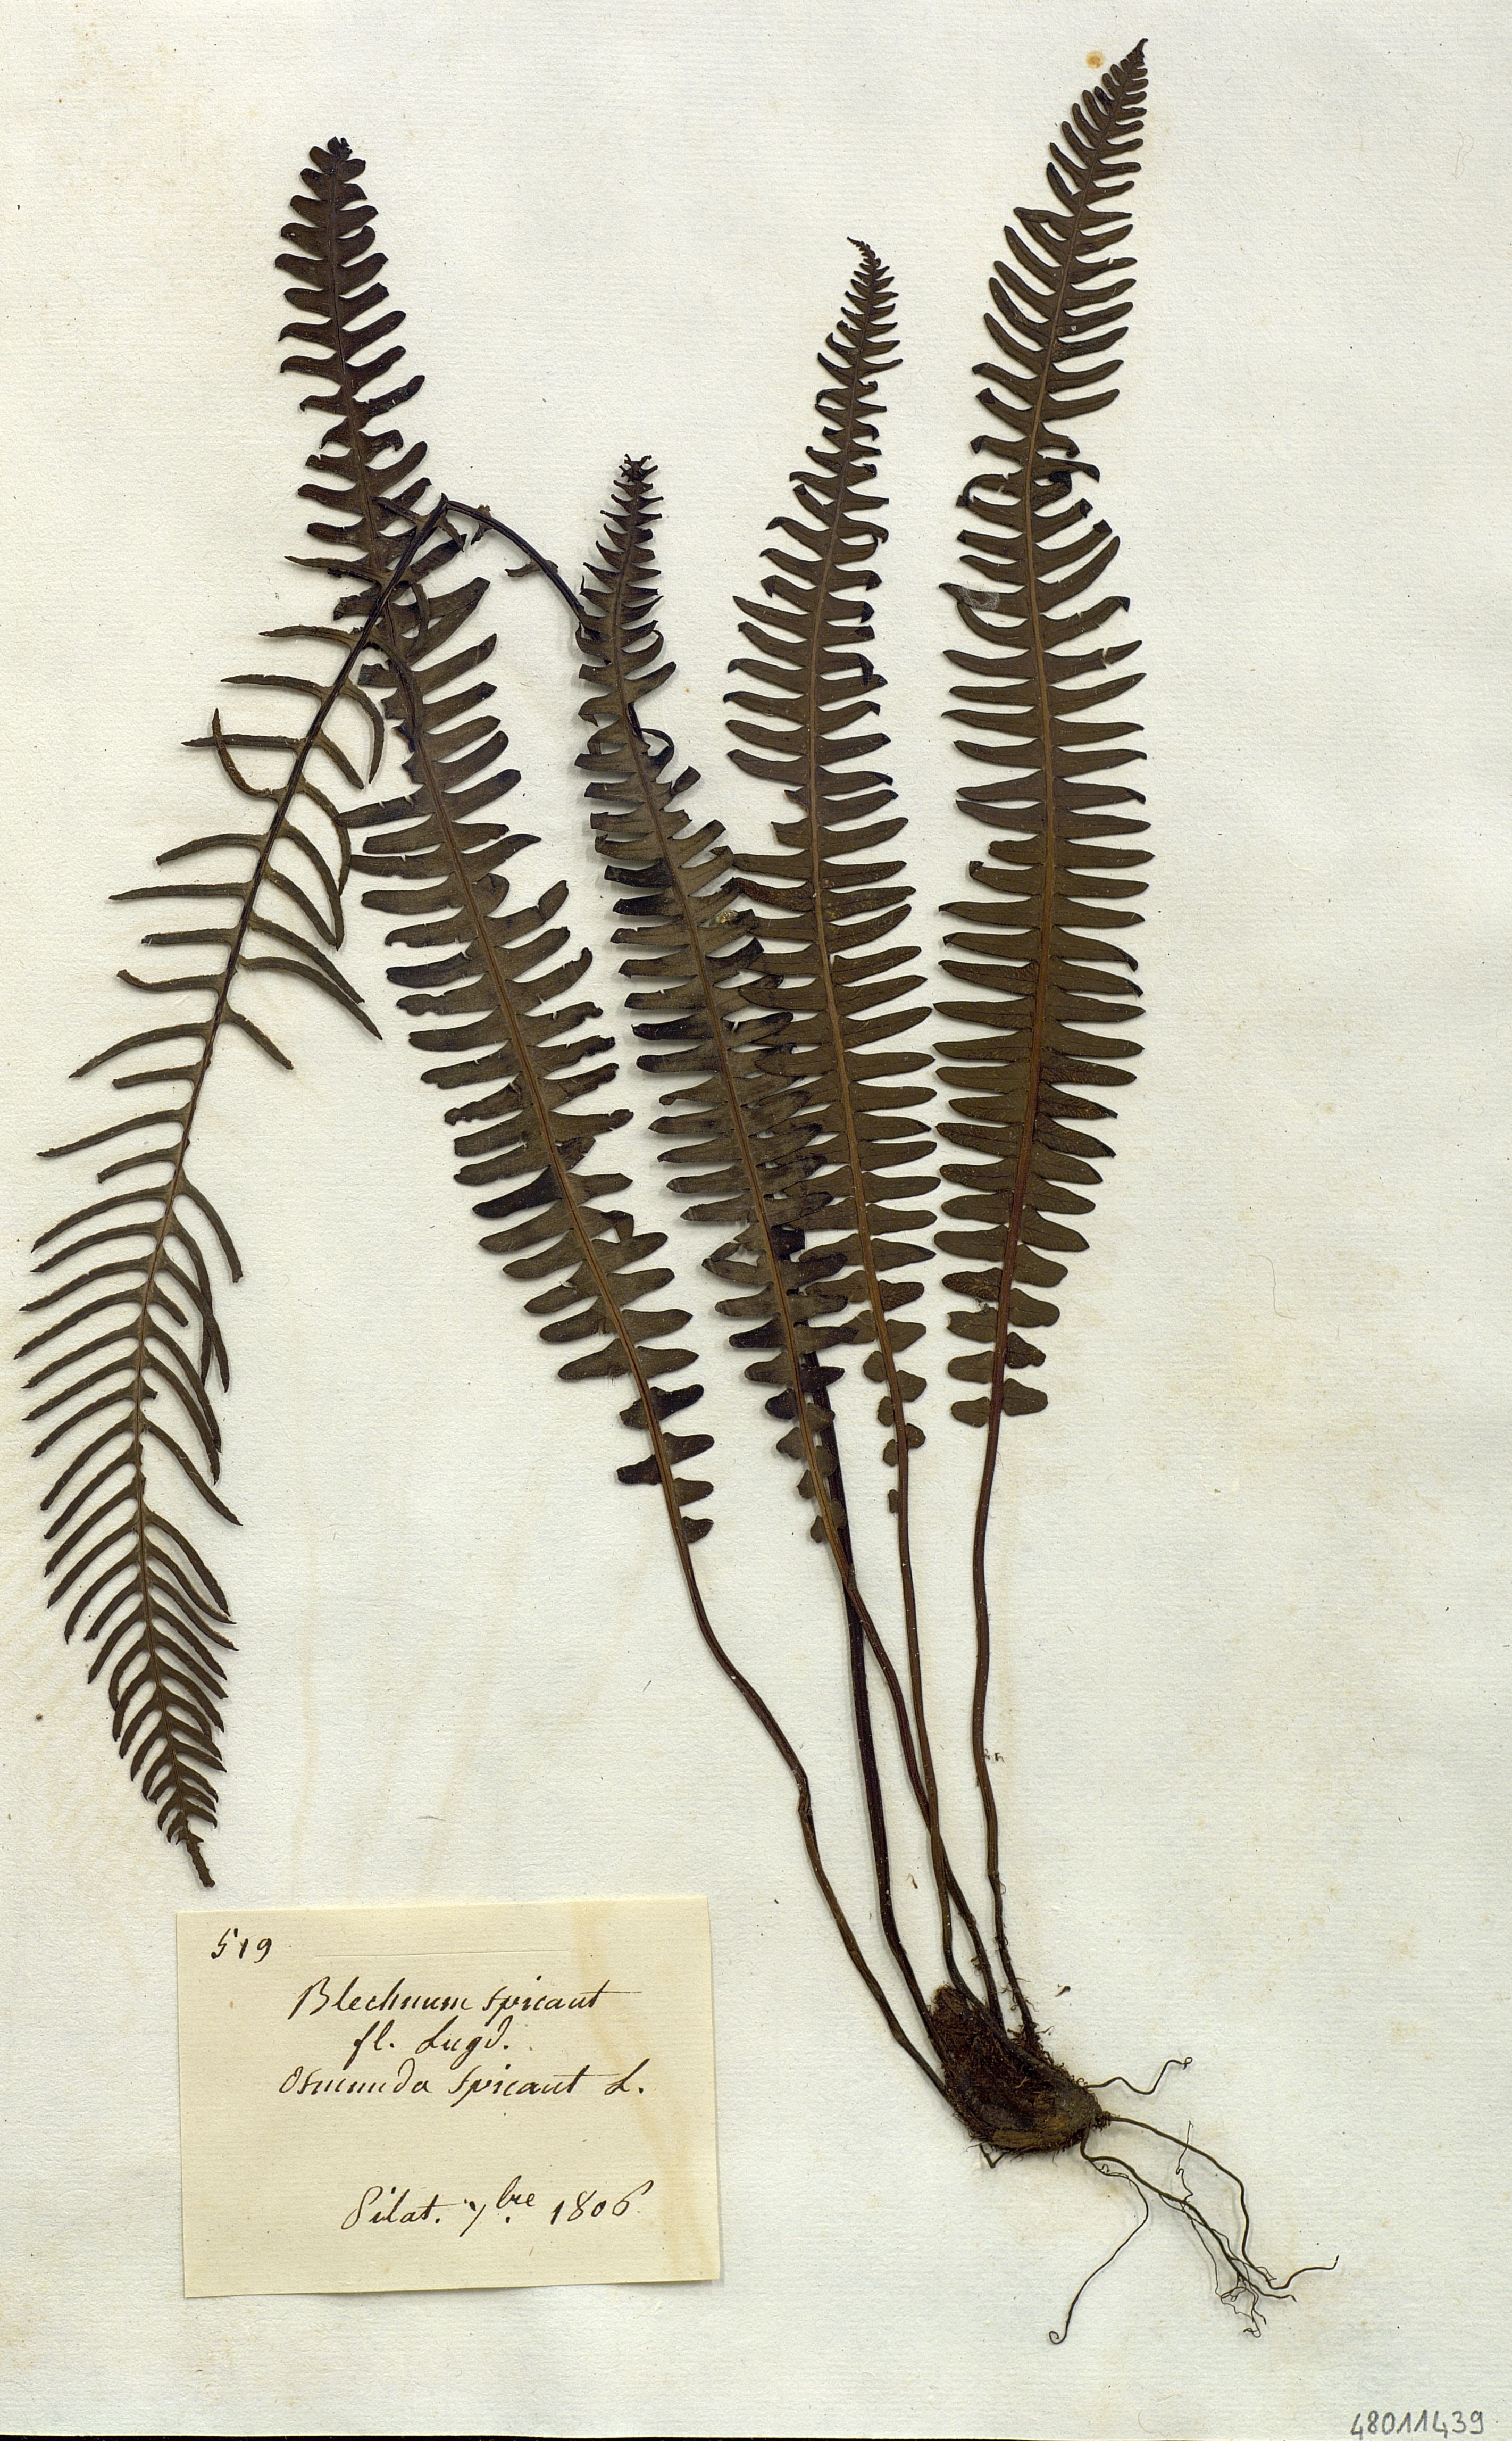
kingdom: Plantae
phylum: Tracheophyta
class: Polypodiopsida
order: Polypodiales
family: Blechnaceae
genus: Struthiopteris
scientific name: Struthiopteris
